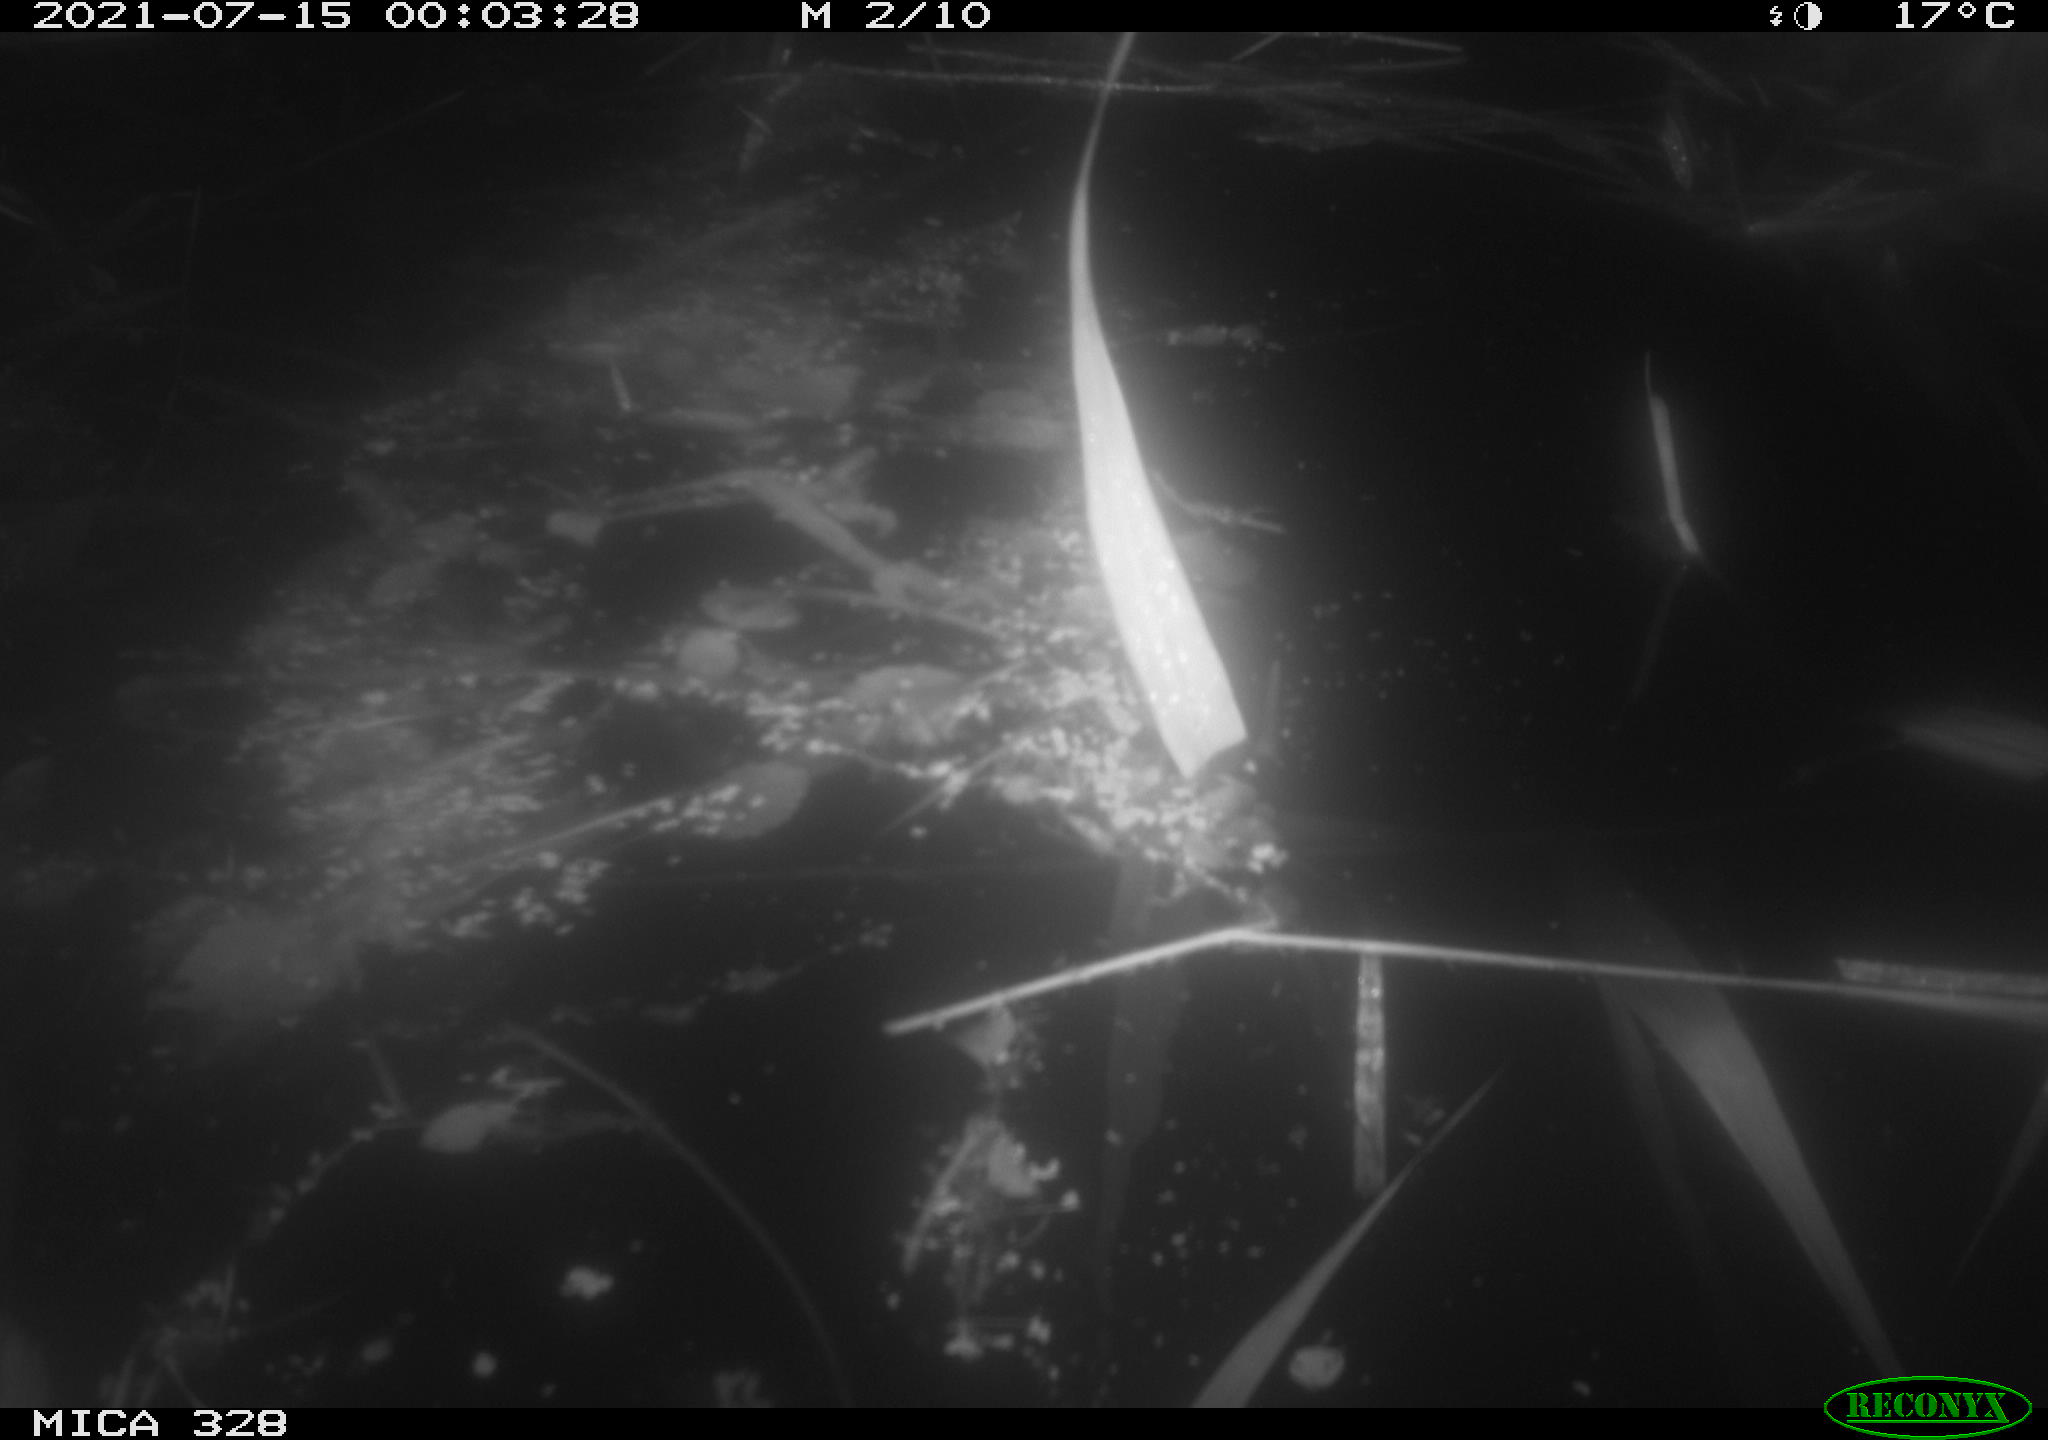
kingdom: Animalia
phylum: Chordata
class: Mammalia
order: Rodentia
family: Cricetidae
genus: Ondatra
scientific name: Ondatra zibethicus
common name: Muskrat
